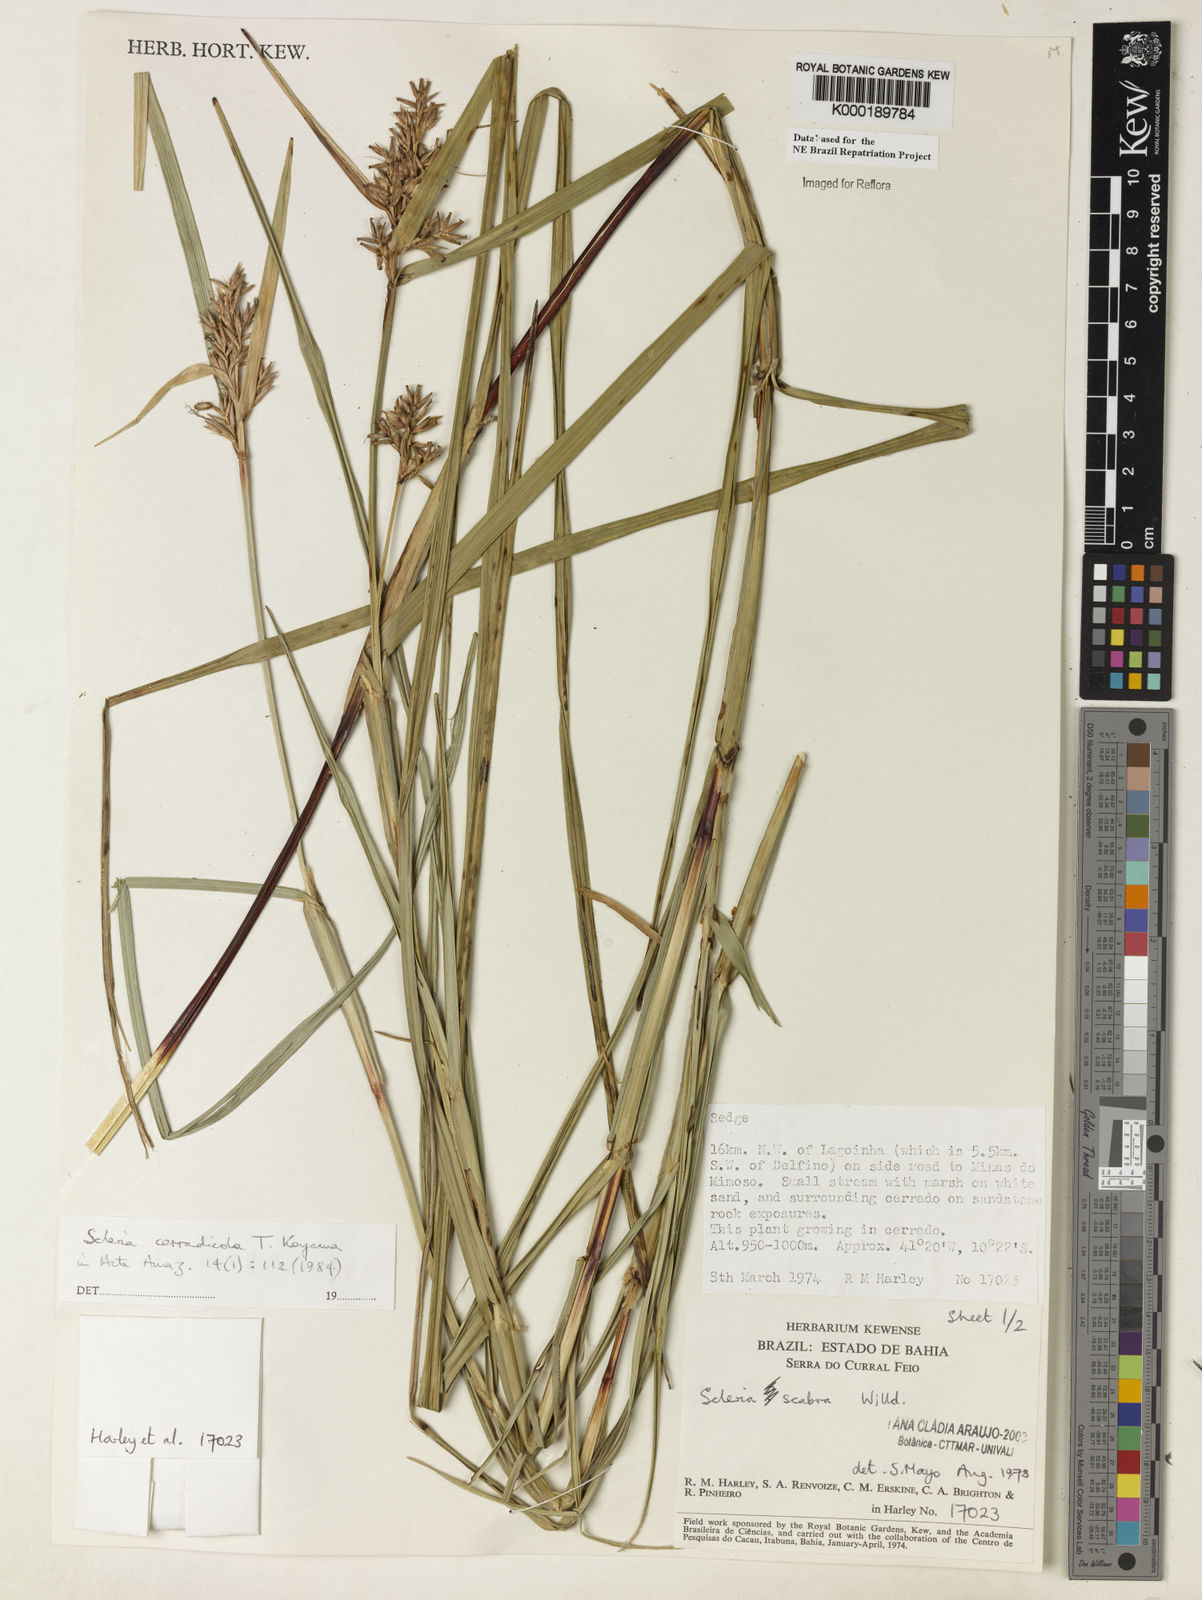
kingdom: Plantae
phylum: Tracheophyta
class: Liliopsida
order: Poales
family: Cyperaceae
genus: Scleria
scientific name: Scleria scabra
